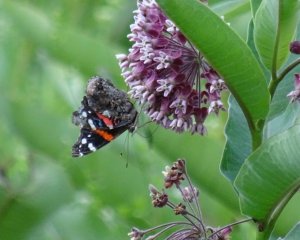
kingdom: Animalia
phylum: Arthropoda
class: Insecta
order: Lepidoptera
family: Nymphalidae
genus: Vanessa
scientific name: Vanessa atalanta
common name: Red Admiral
